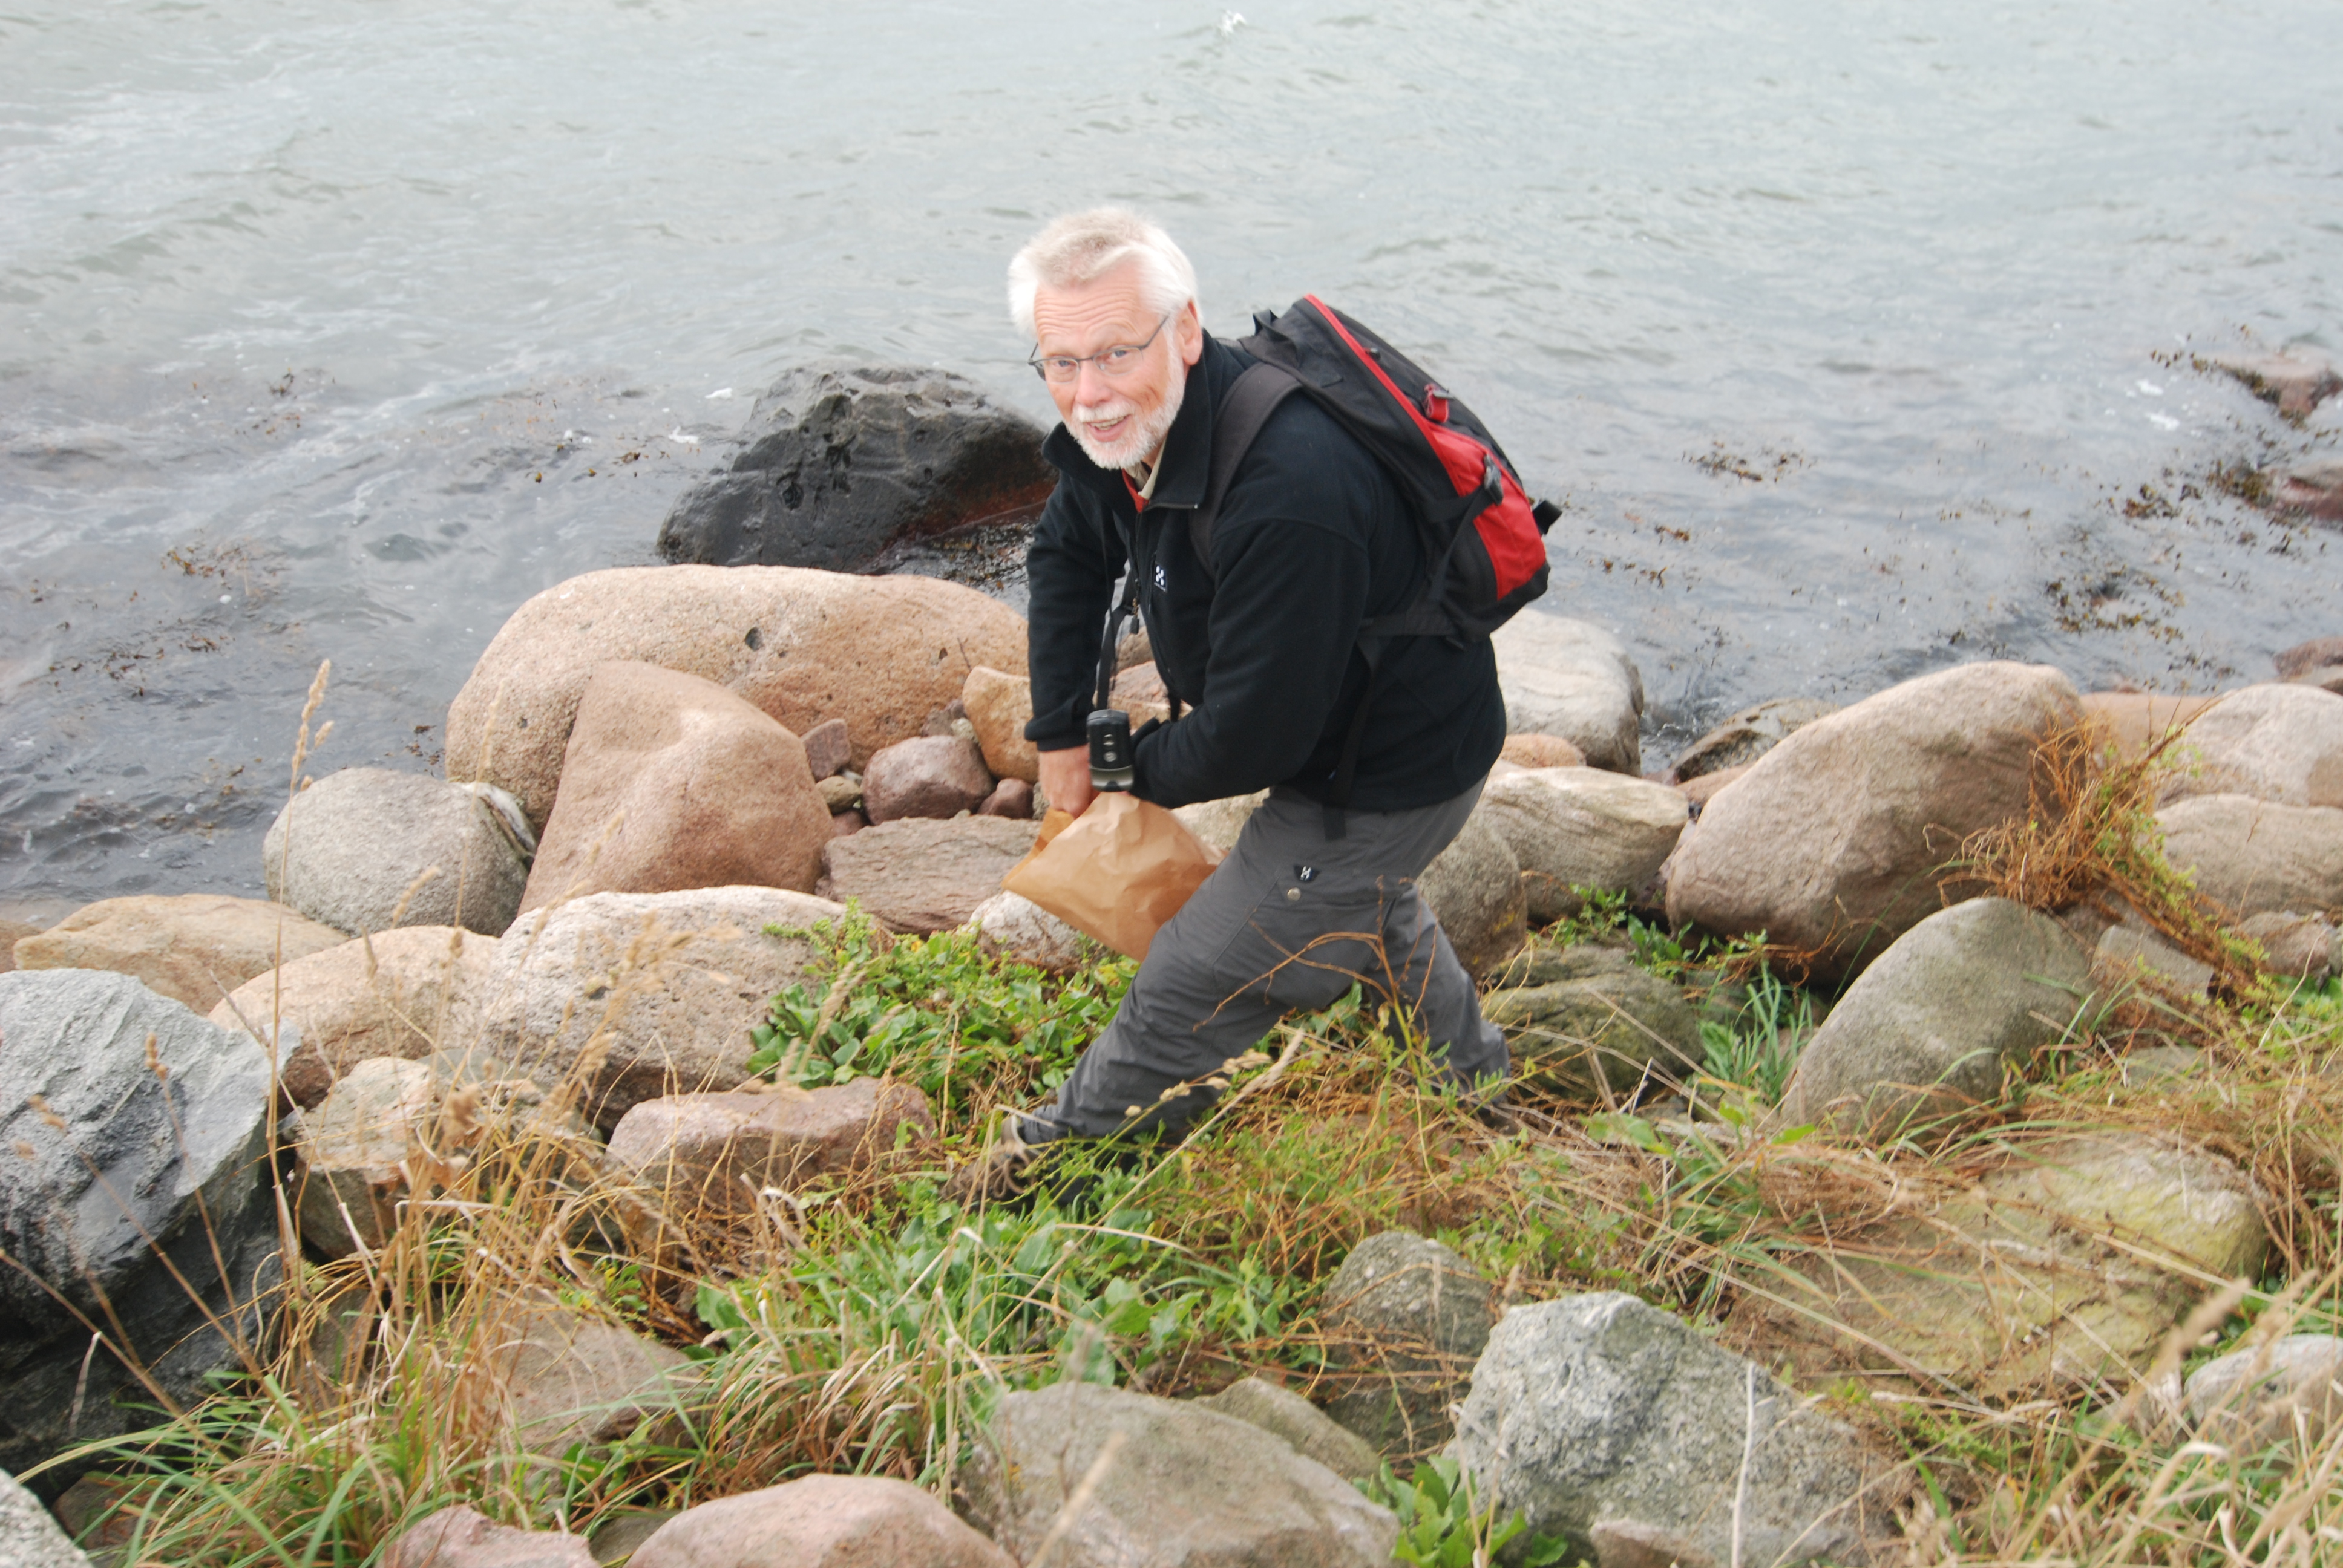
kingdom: Plantae
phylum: Tracheophyta
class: Magnoliopsida
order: Caryophyllales
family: Amaranthaceae
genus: Beta
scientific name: Beta maritima
